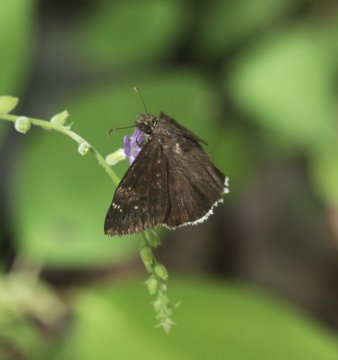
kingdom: Animalia
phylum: Arthropoda
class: Insecta
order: Lepidoptera
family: Hesperiidae
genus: Erynnis
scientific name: Erynnis
